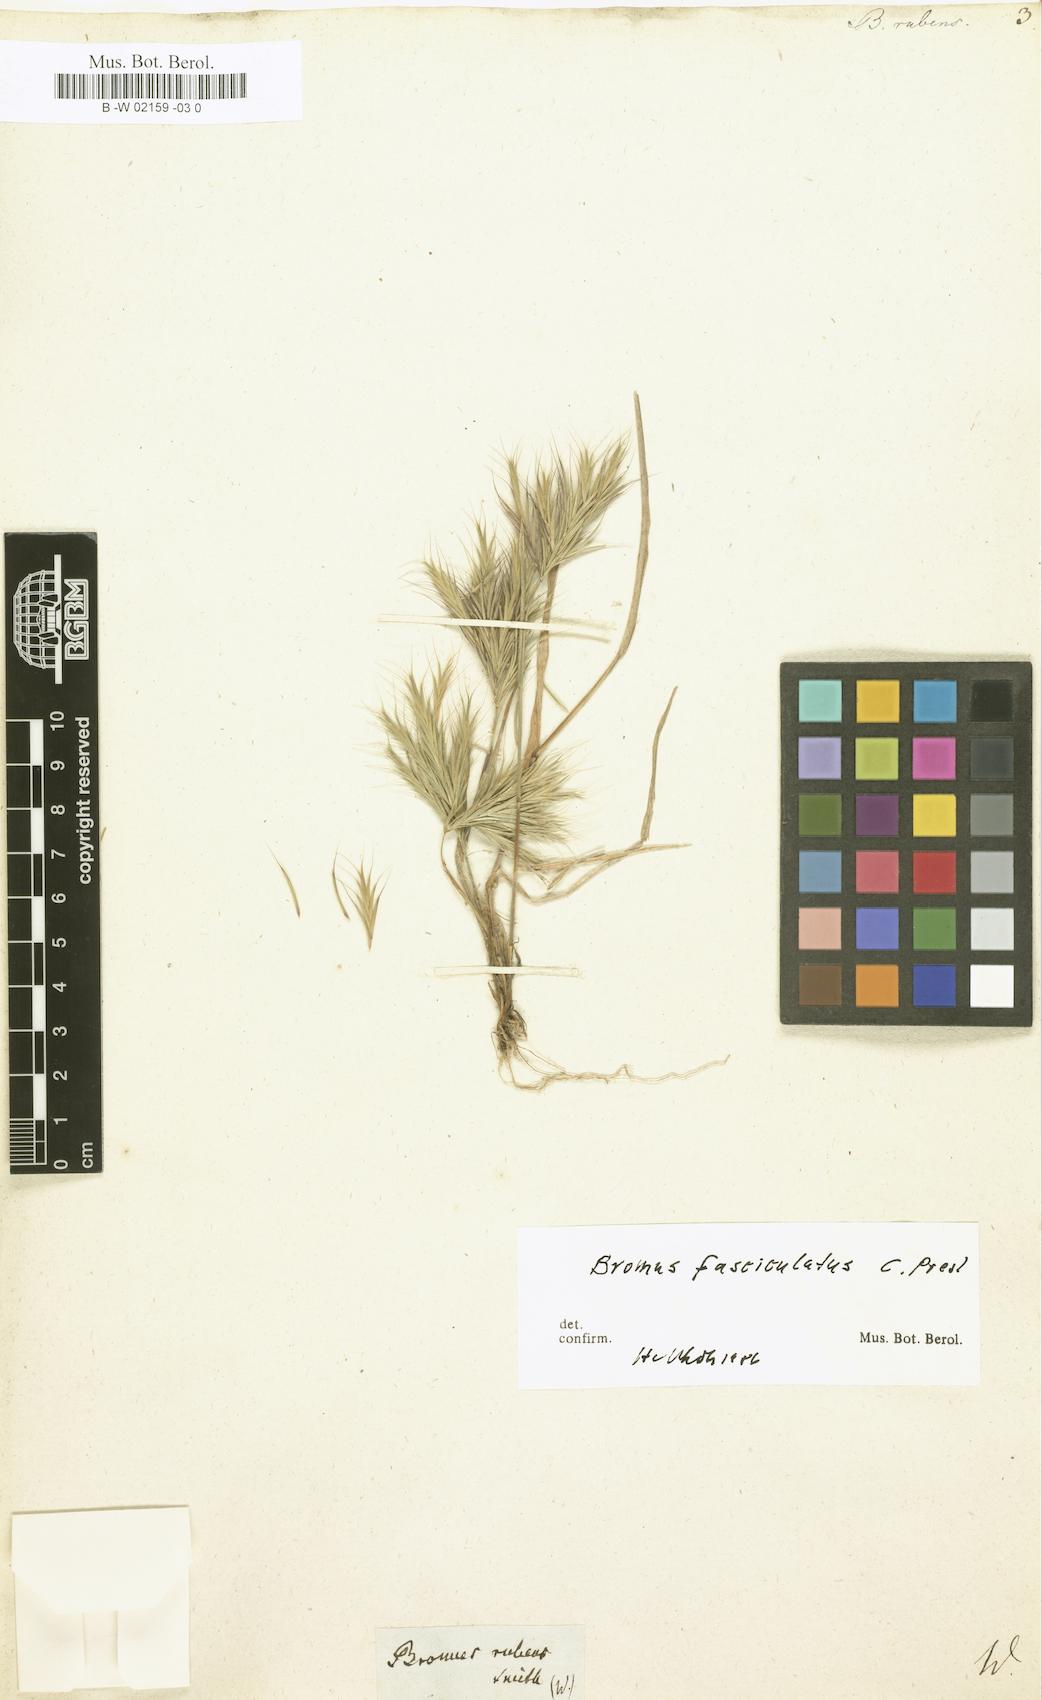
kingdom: Plantae
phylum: Tracheophyta
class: Liliopsida
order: Poales
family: Poaceae
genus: Bromus
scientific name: Bromus rubens
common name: Red brome
